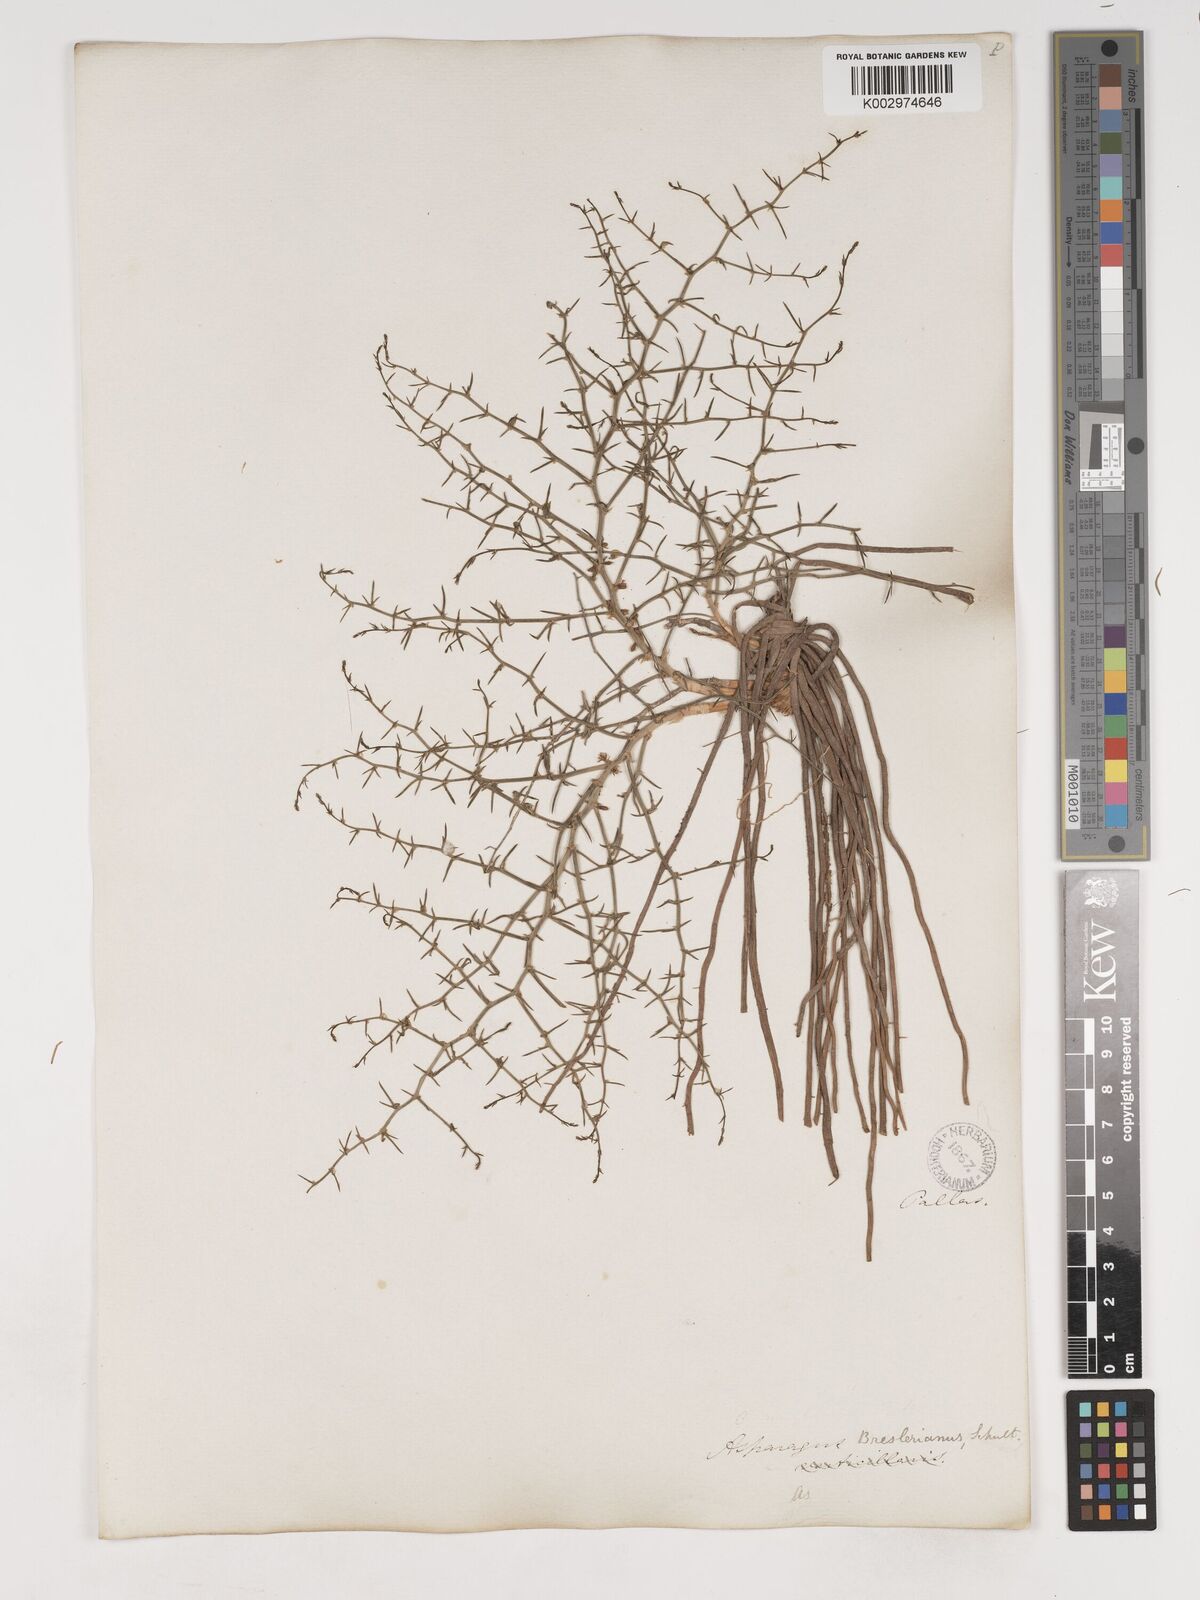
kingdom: Plantae
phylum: Tracheophyta
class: Liliopsida
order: Asparagales
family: Asparagaceae
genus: Asparagus
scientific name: Asparagus breslerianus
